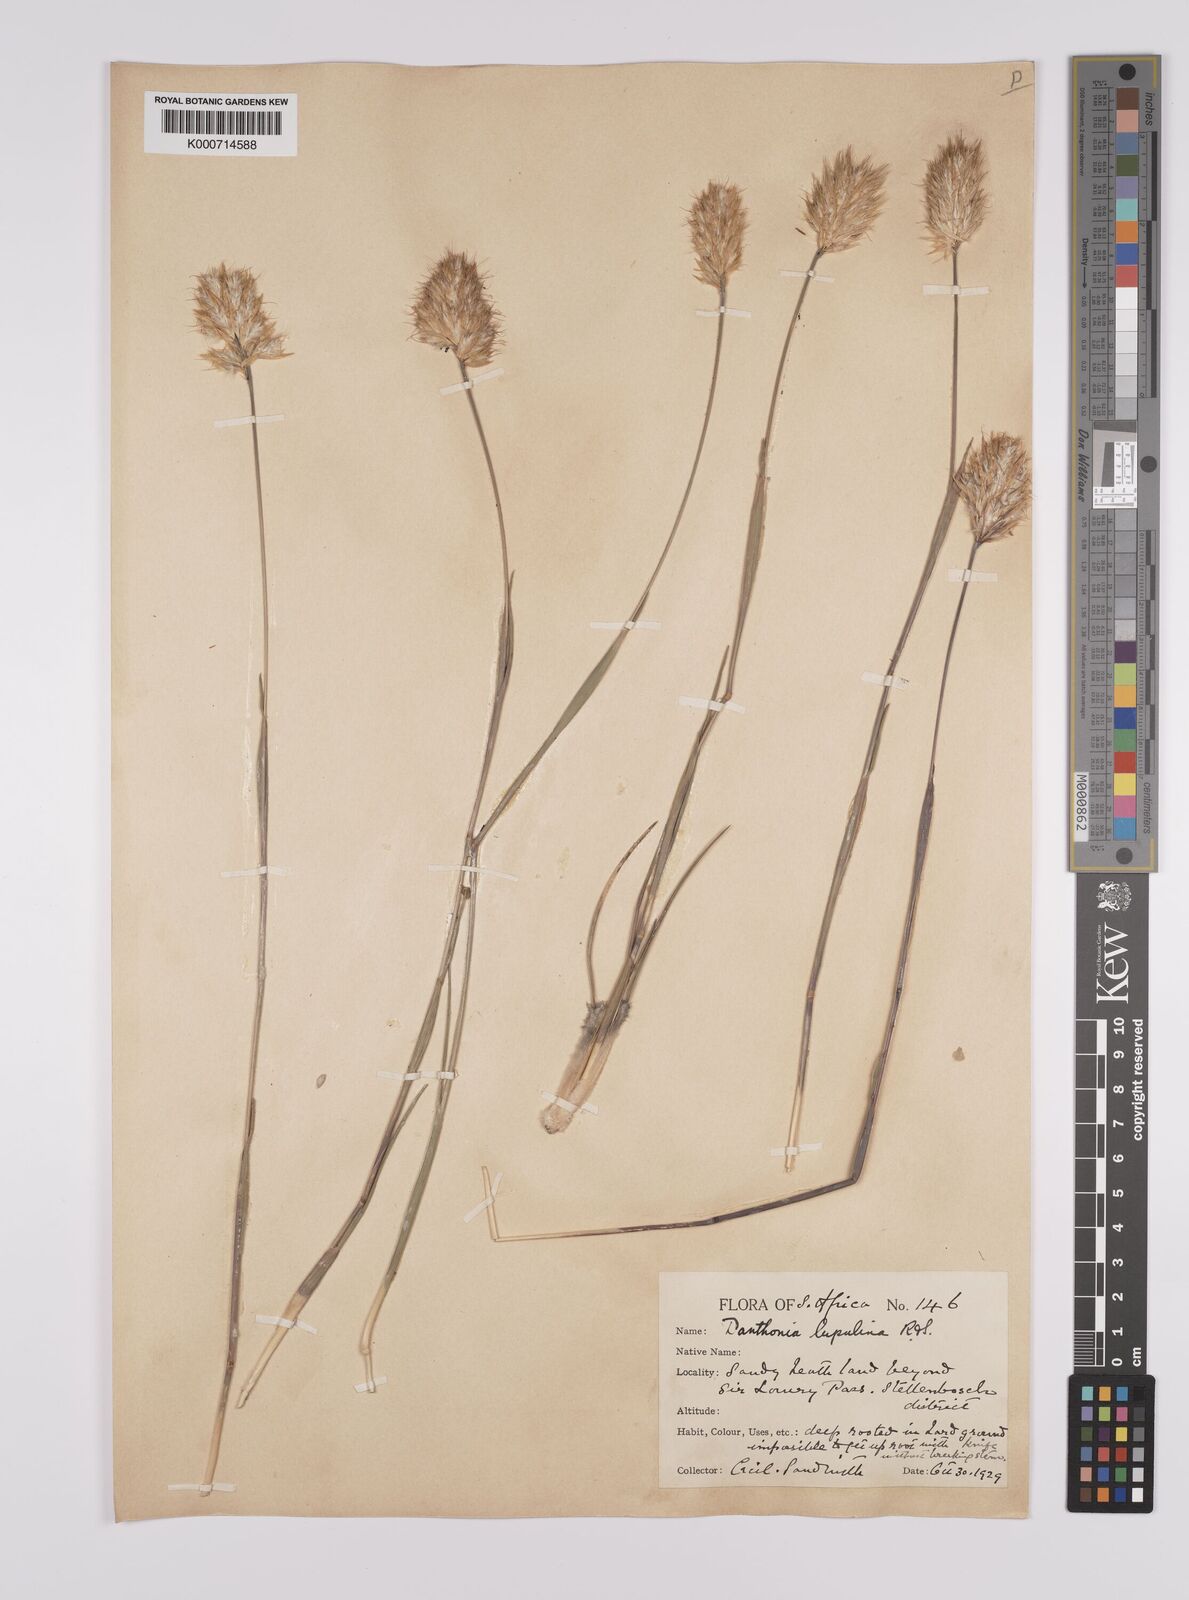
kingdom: Plantae
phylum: Tracheophyta
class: Liliopsida
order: Poales
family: Poaceae
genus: Rytidosperma
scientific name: Rytidosperma
